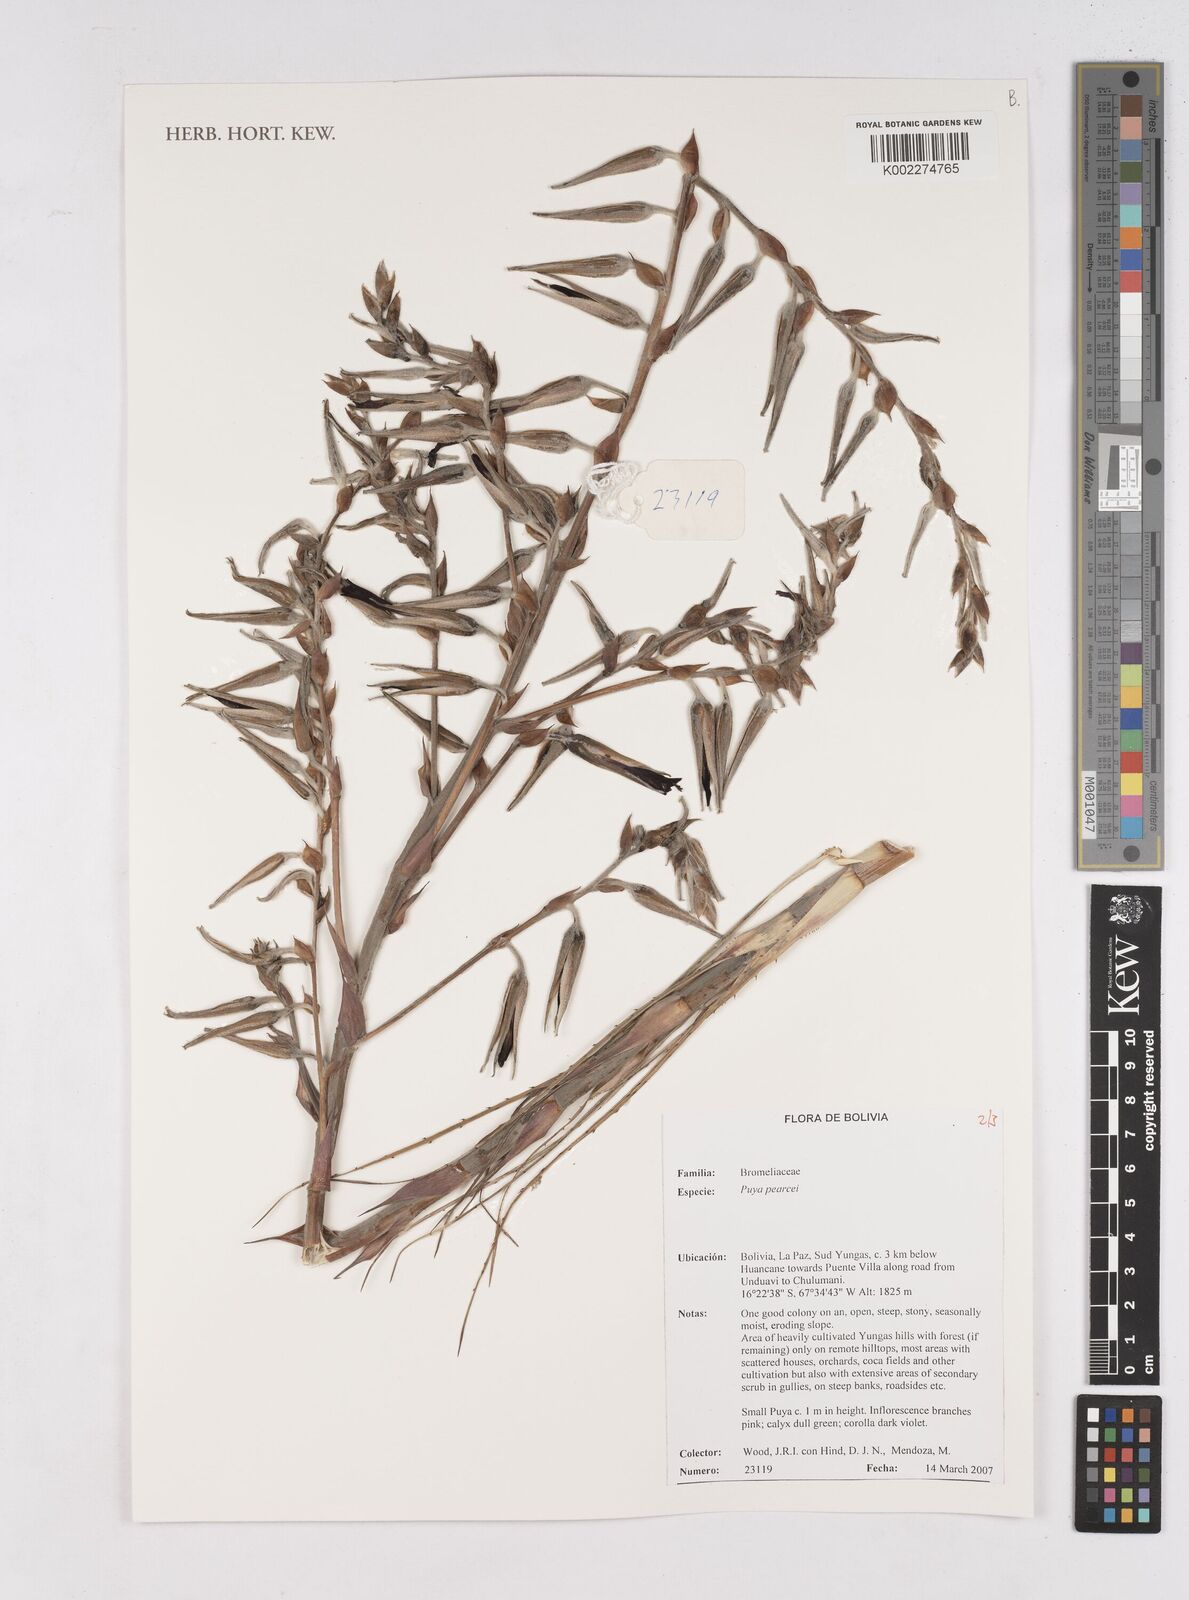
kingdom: Plantae
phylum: Tracheophyta
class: Liliopsida
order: Poales
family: Bromeliaceae
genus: Puya
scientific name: Puya pearcei
